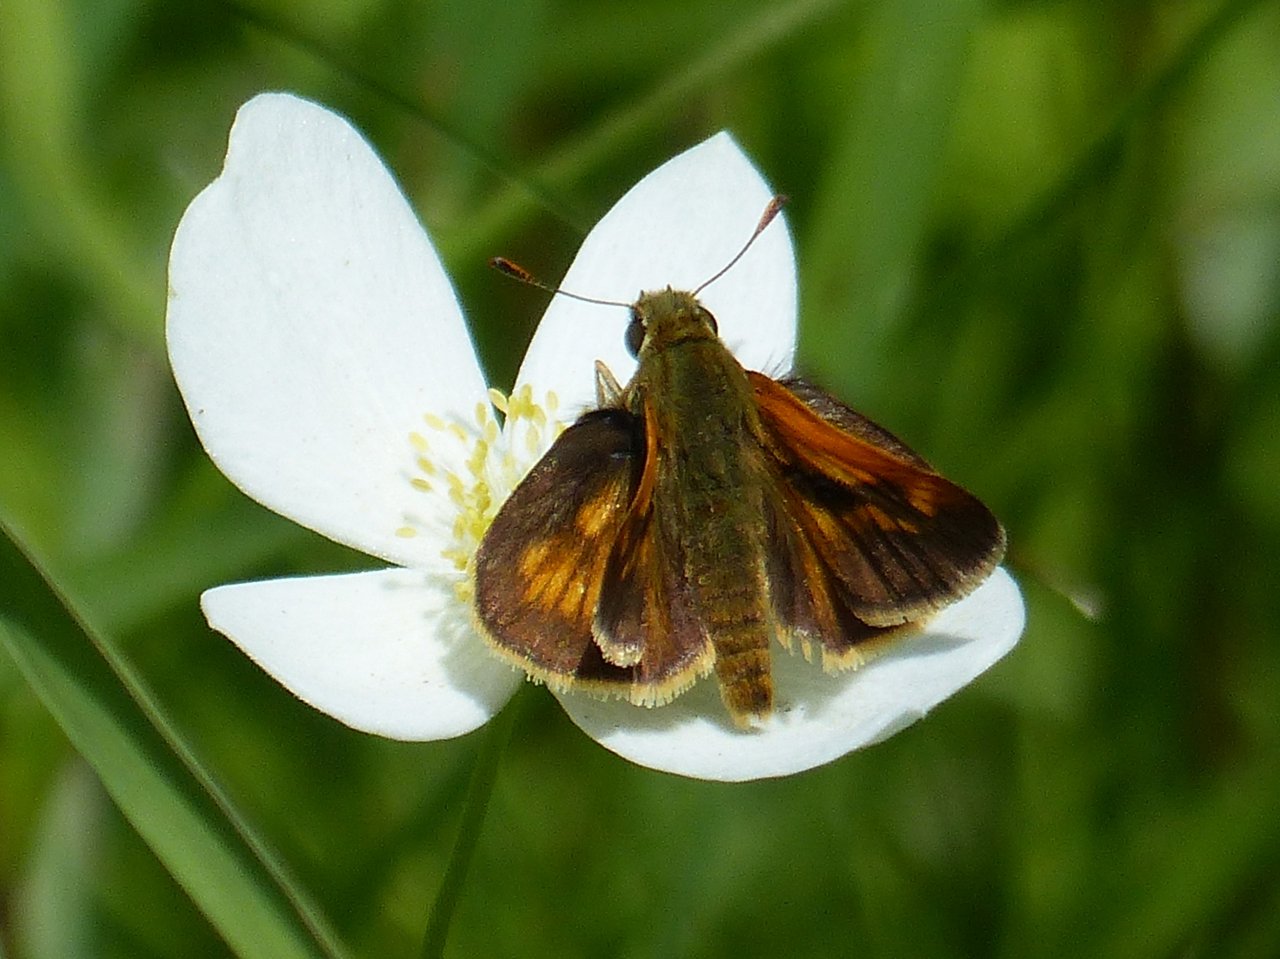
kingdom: Animalia
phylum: Arthropoda
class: Insecta
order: Lepidoptera
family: Hesperiidae
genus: Polites
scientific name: Polites
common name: Long Dash Skipper
